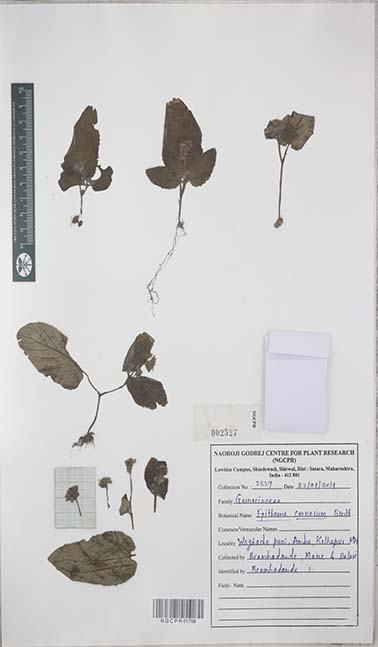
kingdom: Plantae
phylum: Tracheophyta
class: Magnoliopsida
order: Lamiales
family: Gesneriaceae
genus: Epithema
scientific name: Epithema carnosum
